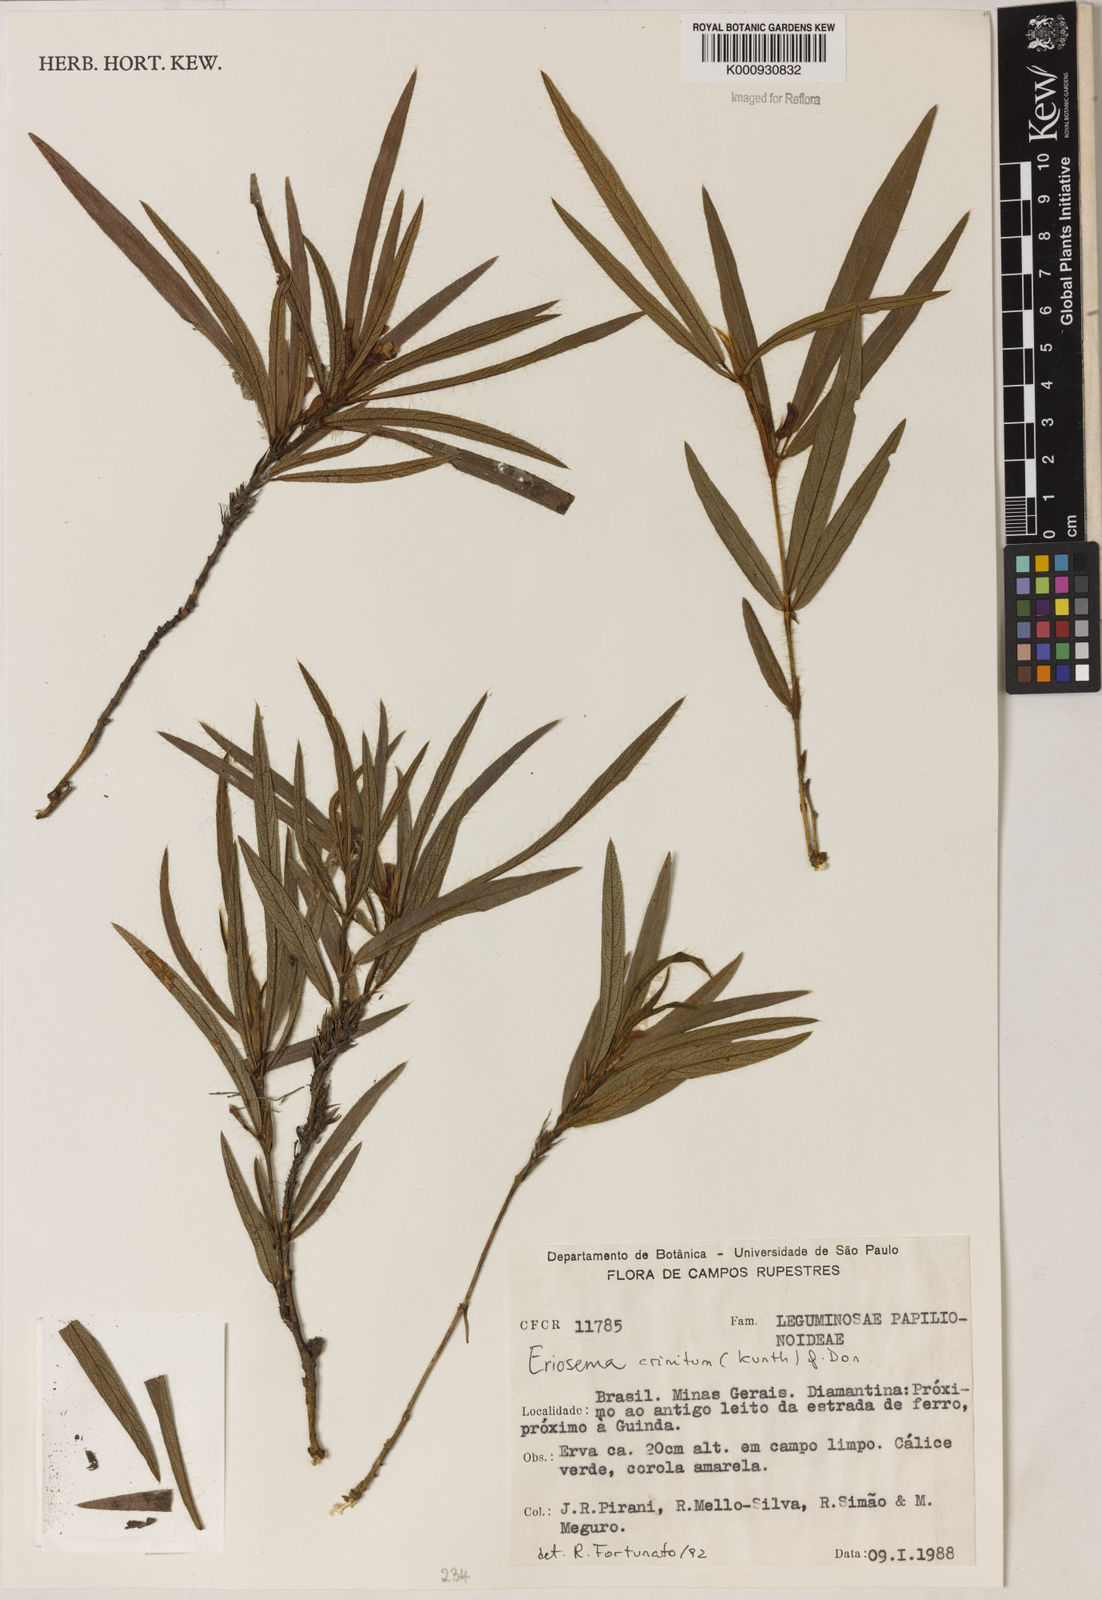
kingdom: Plantae
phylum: Tracheophyta
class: Magnoliopsida
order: Fabales
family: Fabaceae
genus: Eriosema
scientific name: Eriosema crinitum
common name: Sand pea
